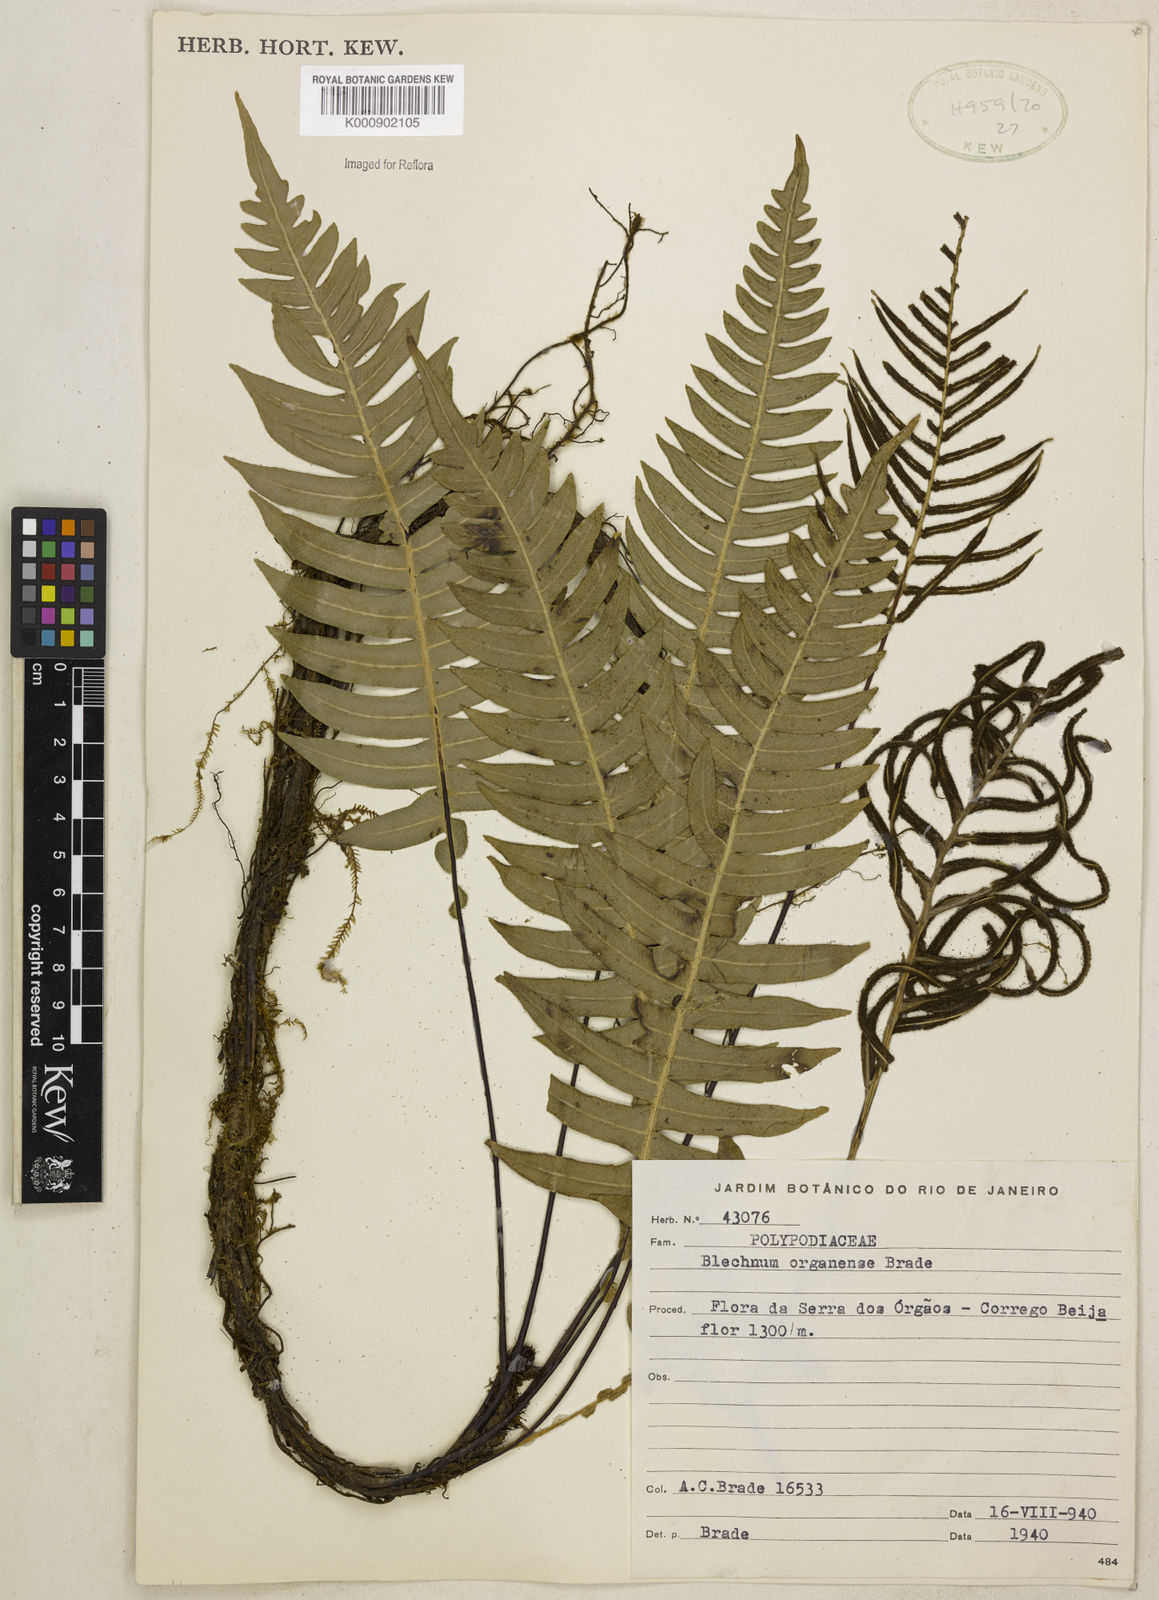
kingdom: Plantae
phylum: Tracheophyta
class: Polypodiopsida
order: Polypodiales
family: Blechnaceae
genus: Austroblechnum
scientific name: Austroblechnum organense
